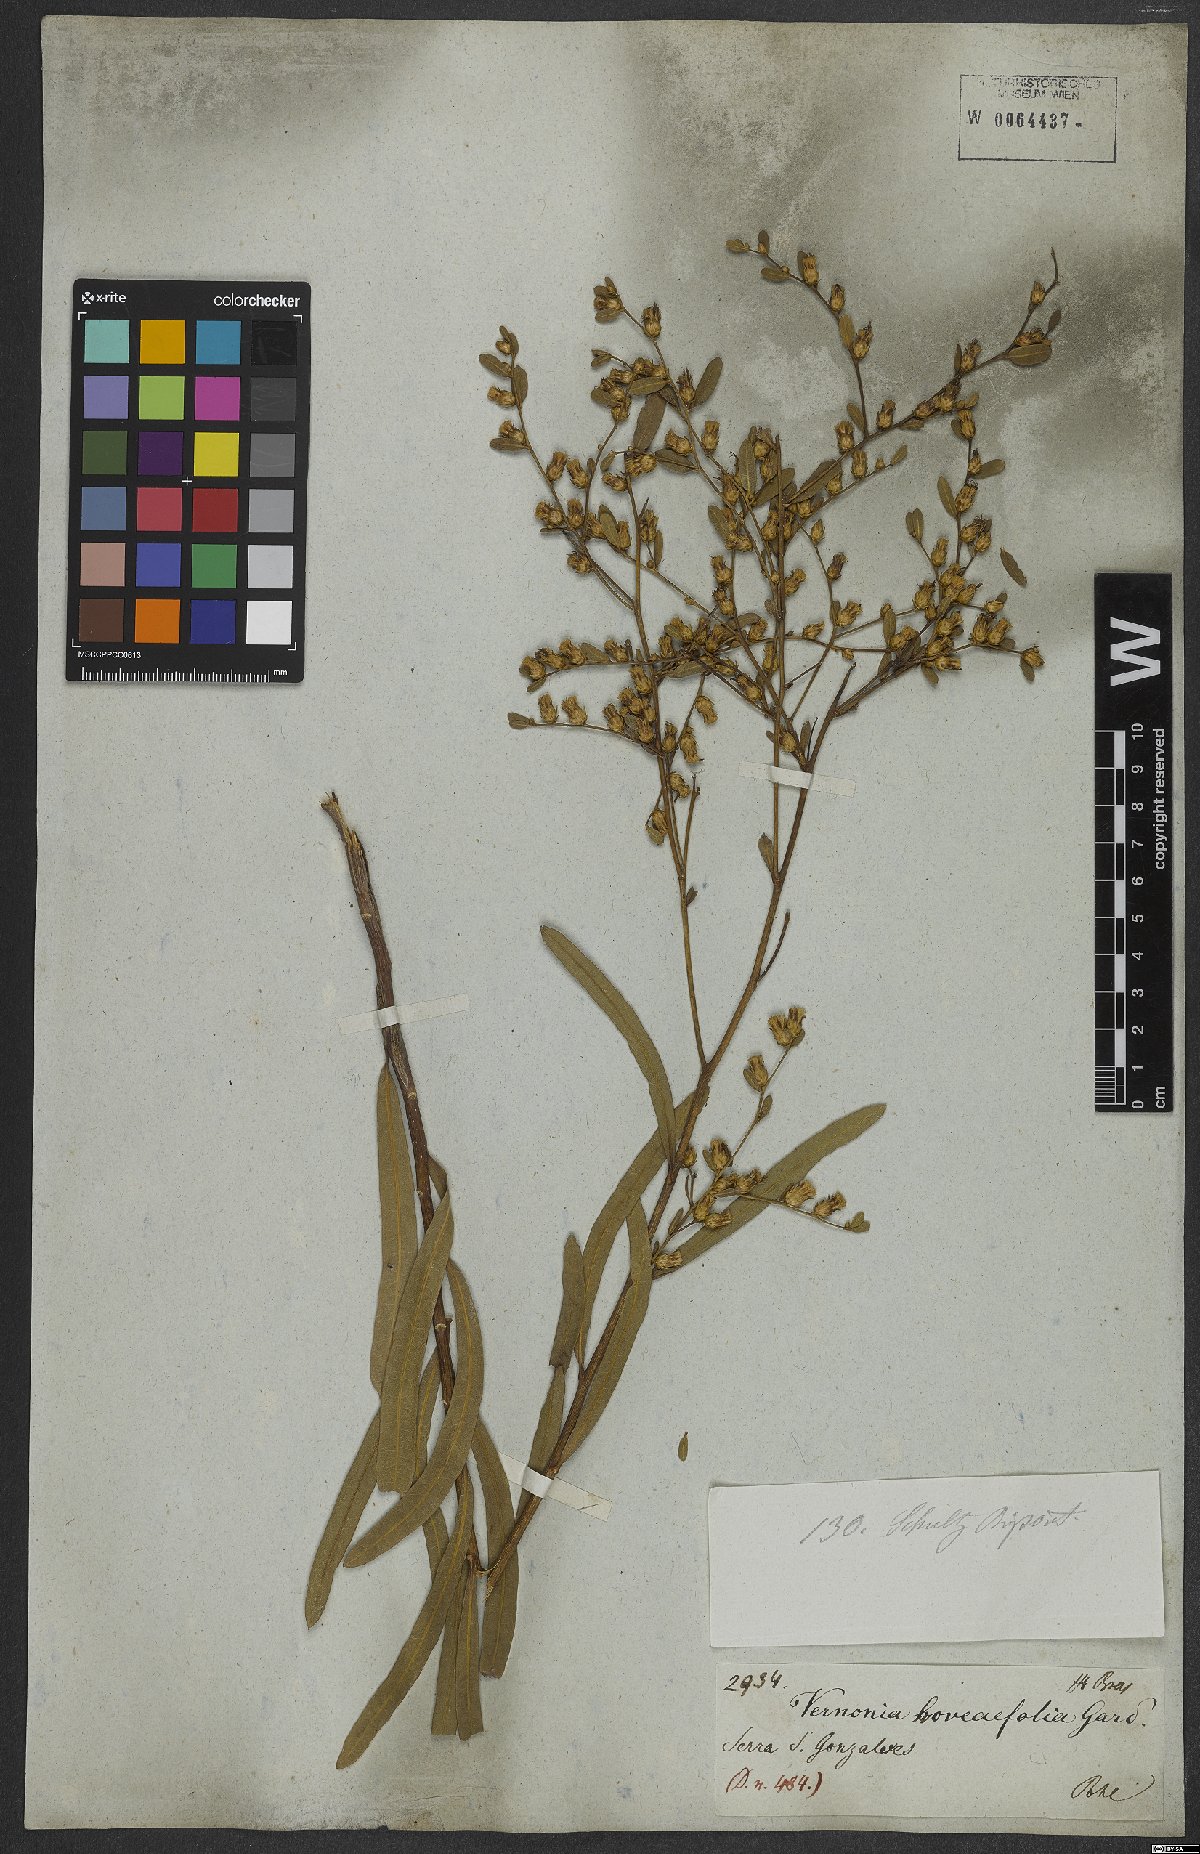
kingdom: Plantae
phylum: Tracheophyta
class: Magnoliopsida
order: Asterales
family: Asteraceae
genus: Lessingianthus
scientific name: Lessingianthus hoveaefolius
